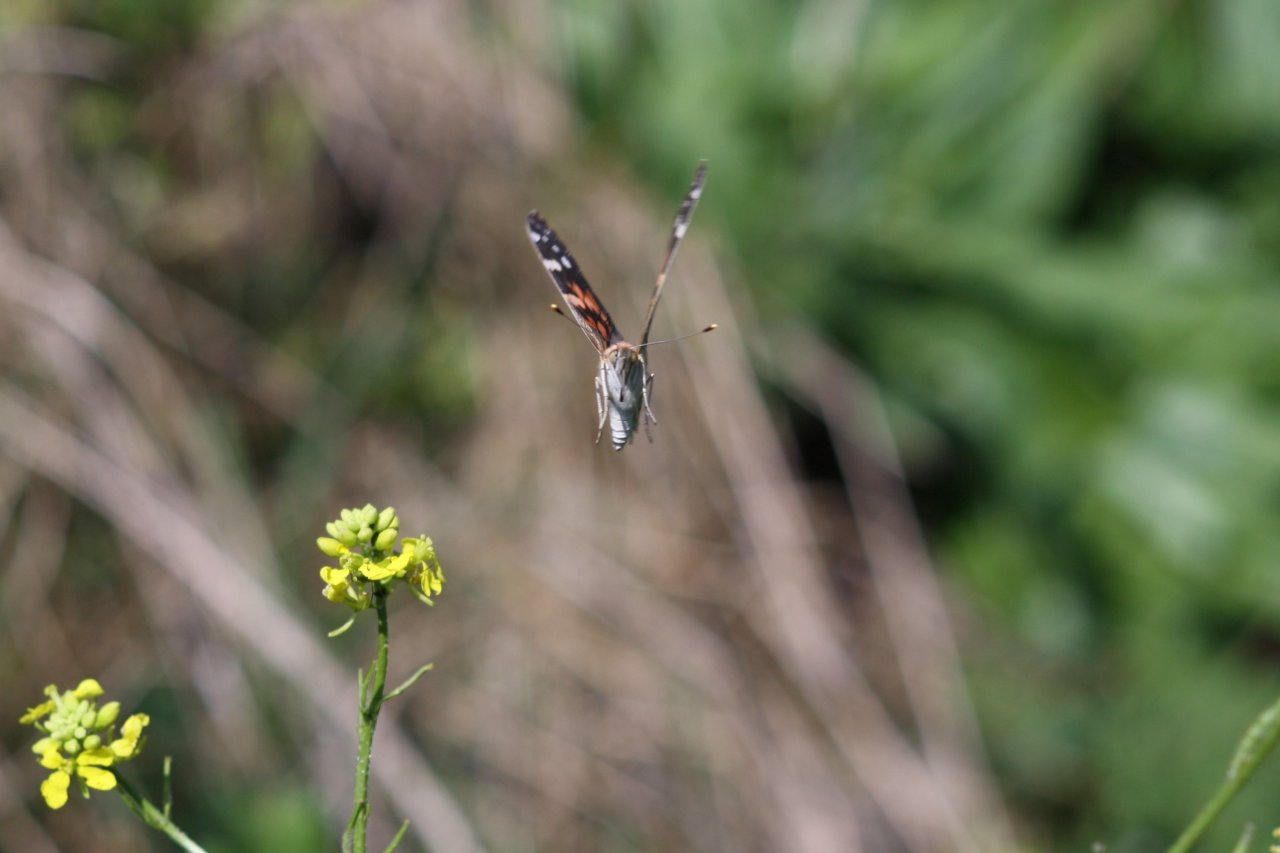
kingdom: Animalia
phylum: Arthropoda
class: Insecta
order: Lepidoptera
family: Nymphalidae
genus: Vanessa
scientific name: Vanessa cardui
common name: Painted Lady
